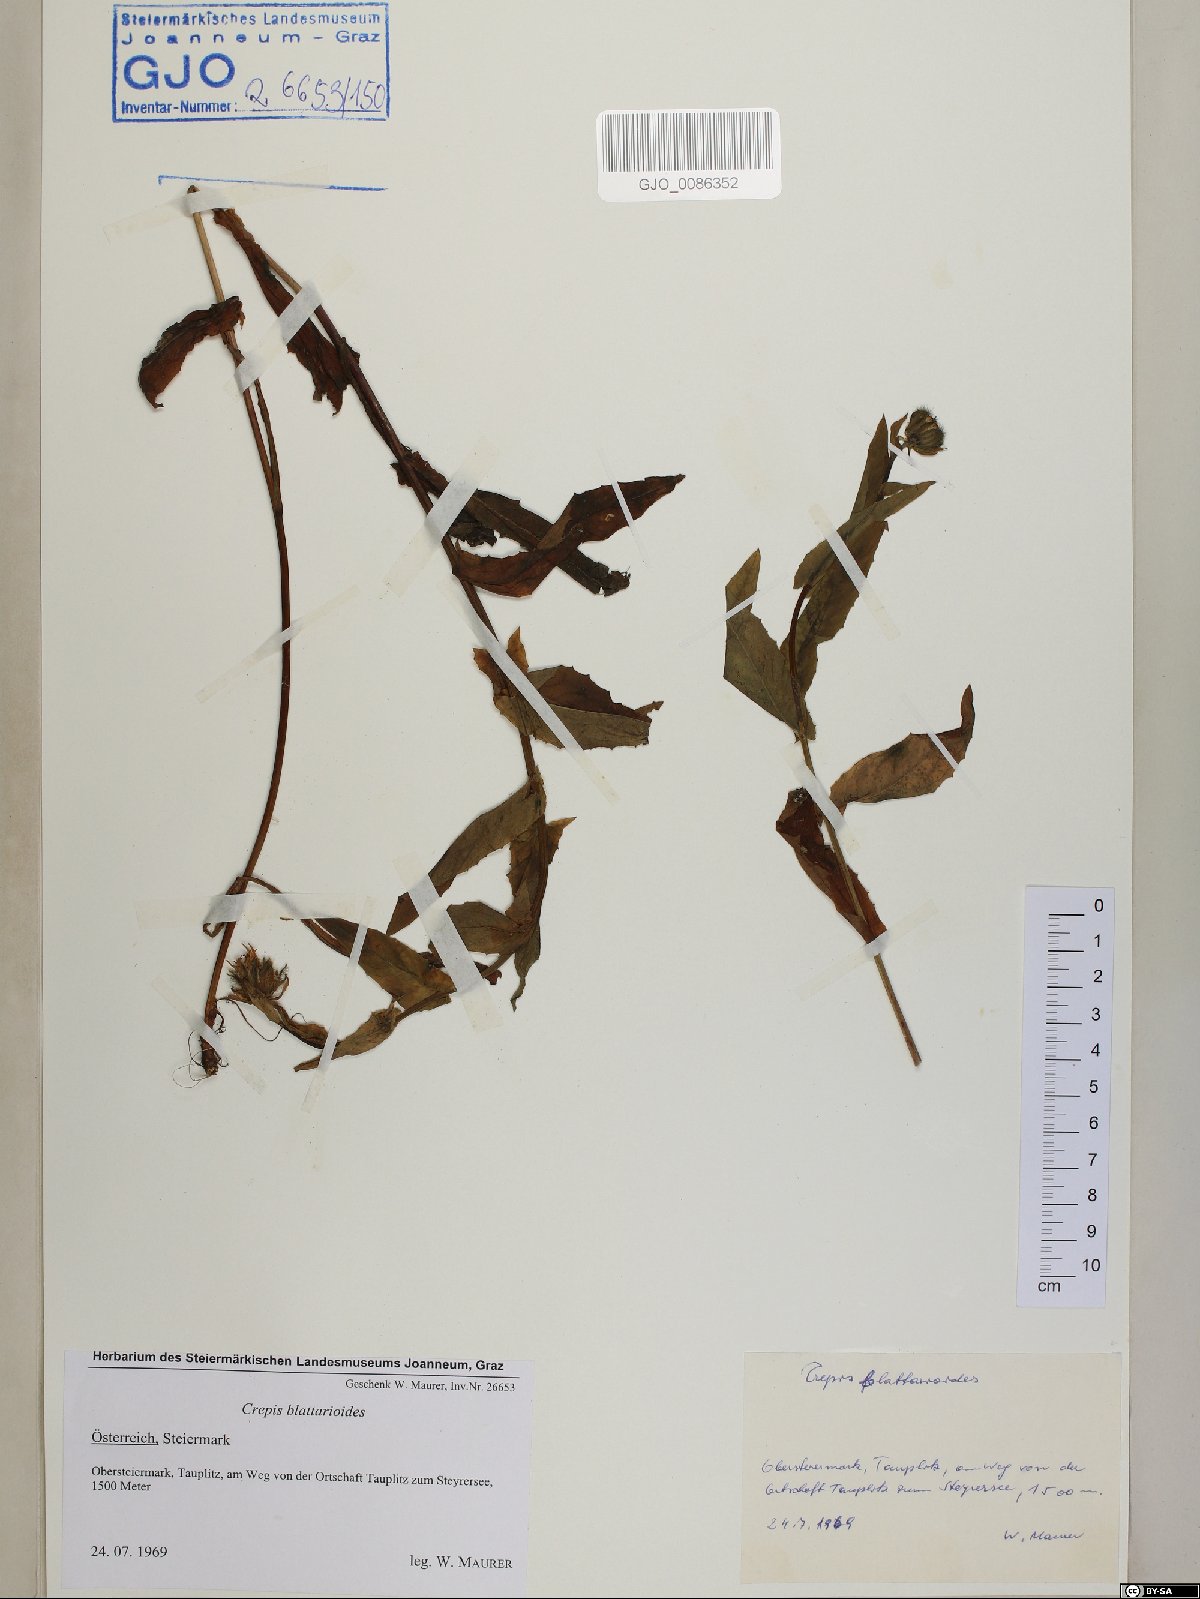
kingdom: Plantae
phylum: Tracheophyta
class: Magnoliopsida
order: Asterales
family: Asteraceae
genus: Crepis
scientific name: Crepis blattarioides
